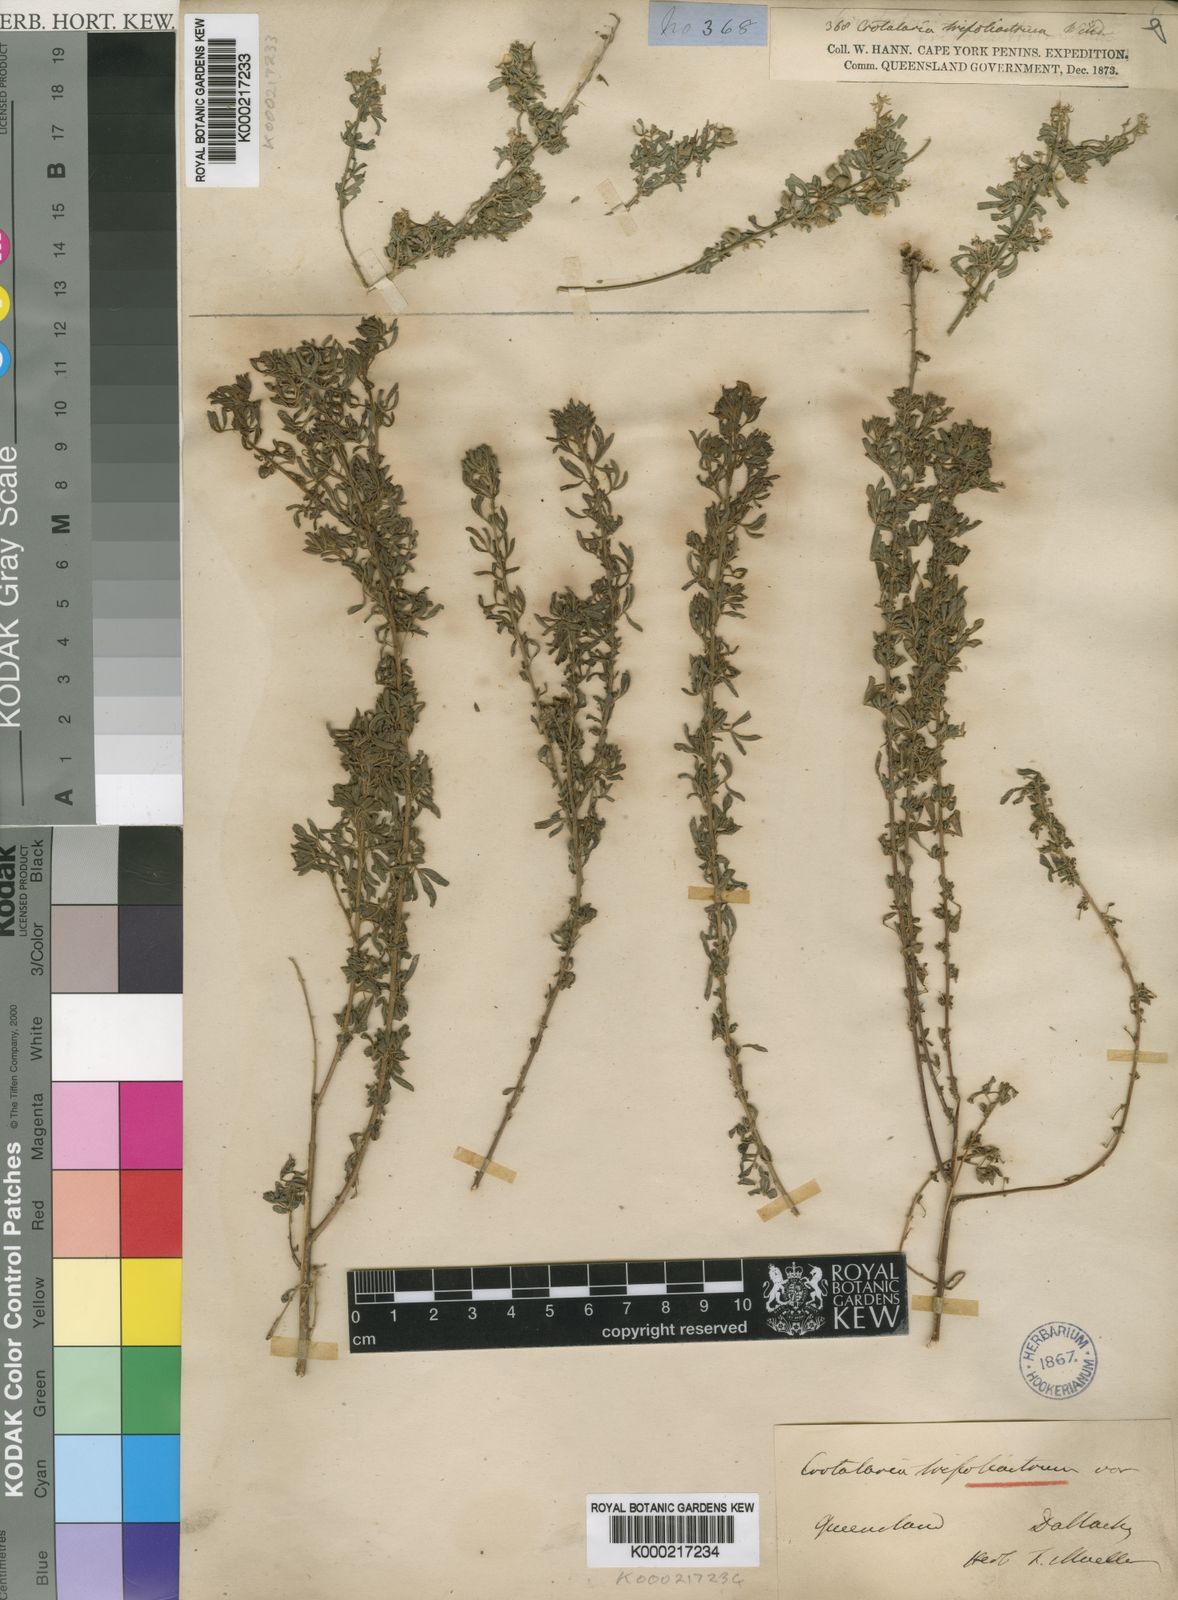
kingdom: Plantae
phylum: Tracheophyta
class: Magnoliopsida
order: Fabales
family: Fabaceae
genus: Crotalaria
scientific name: Crotalaria trifoliastrum
